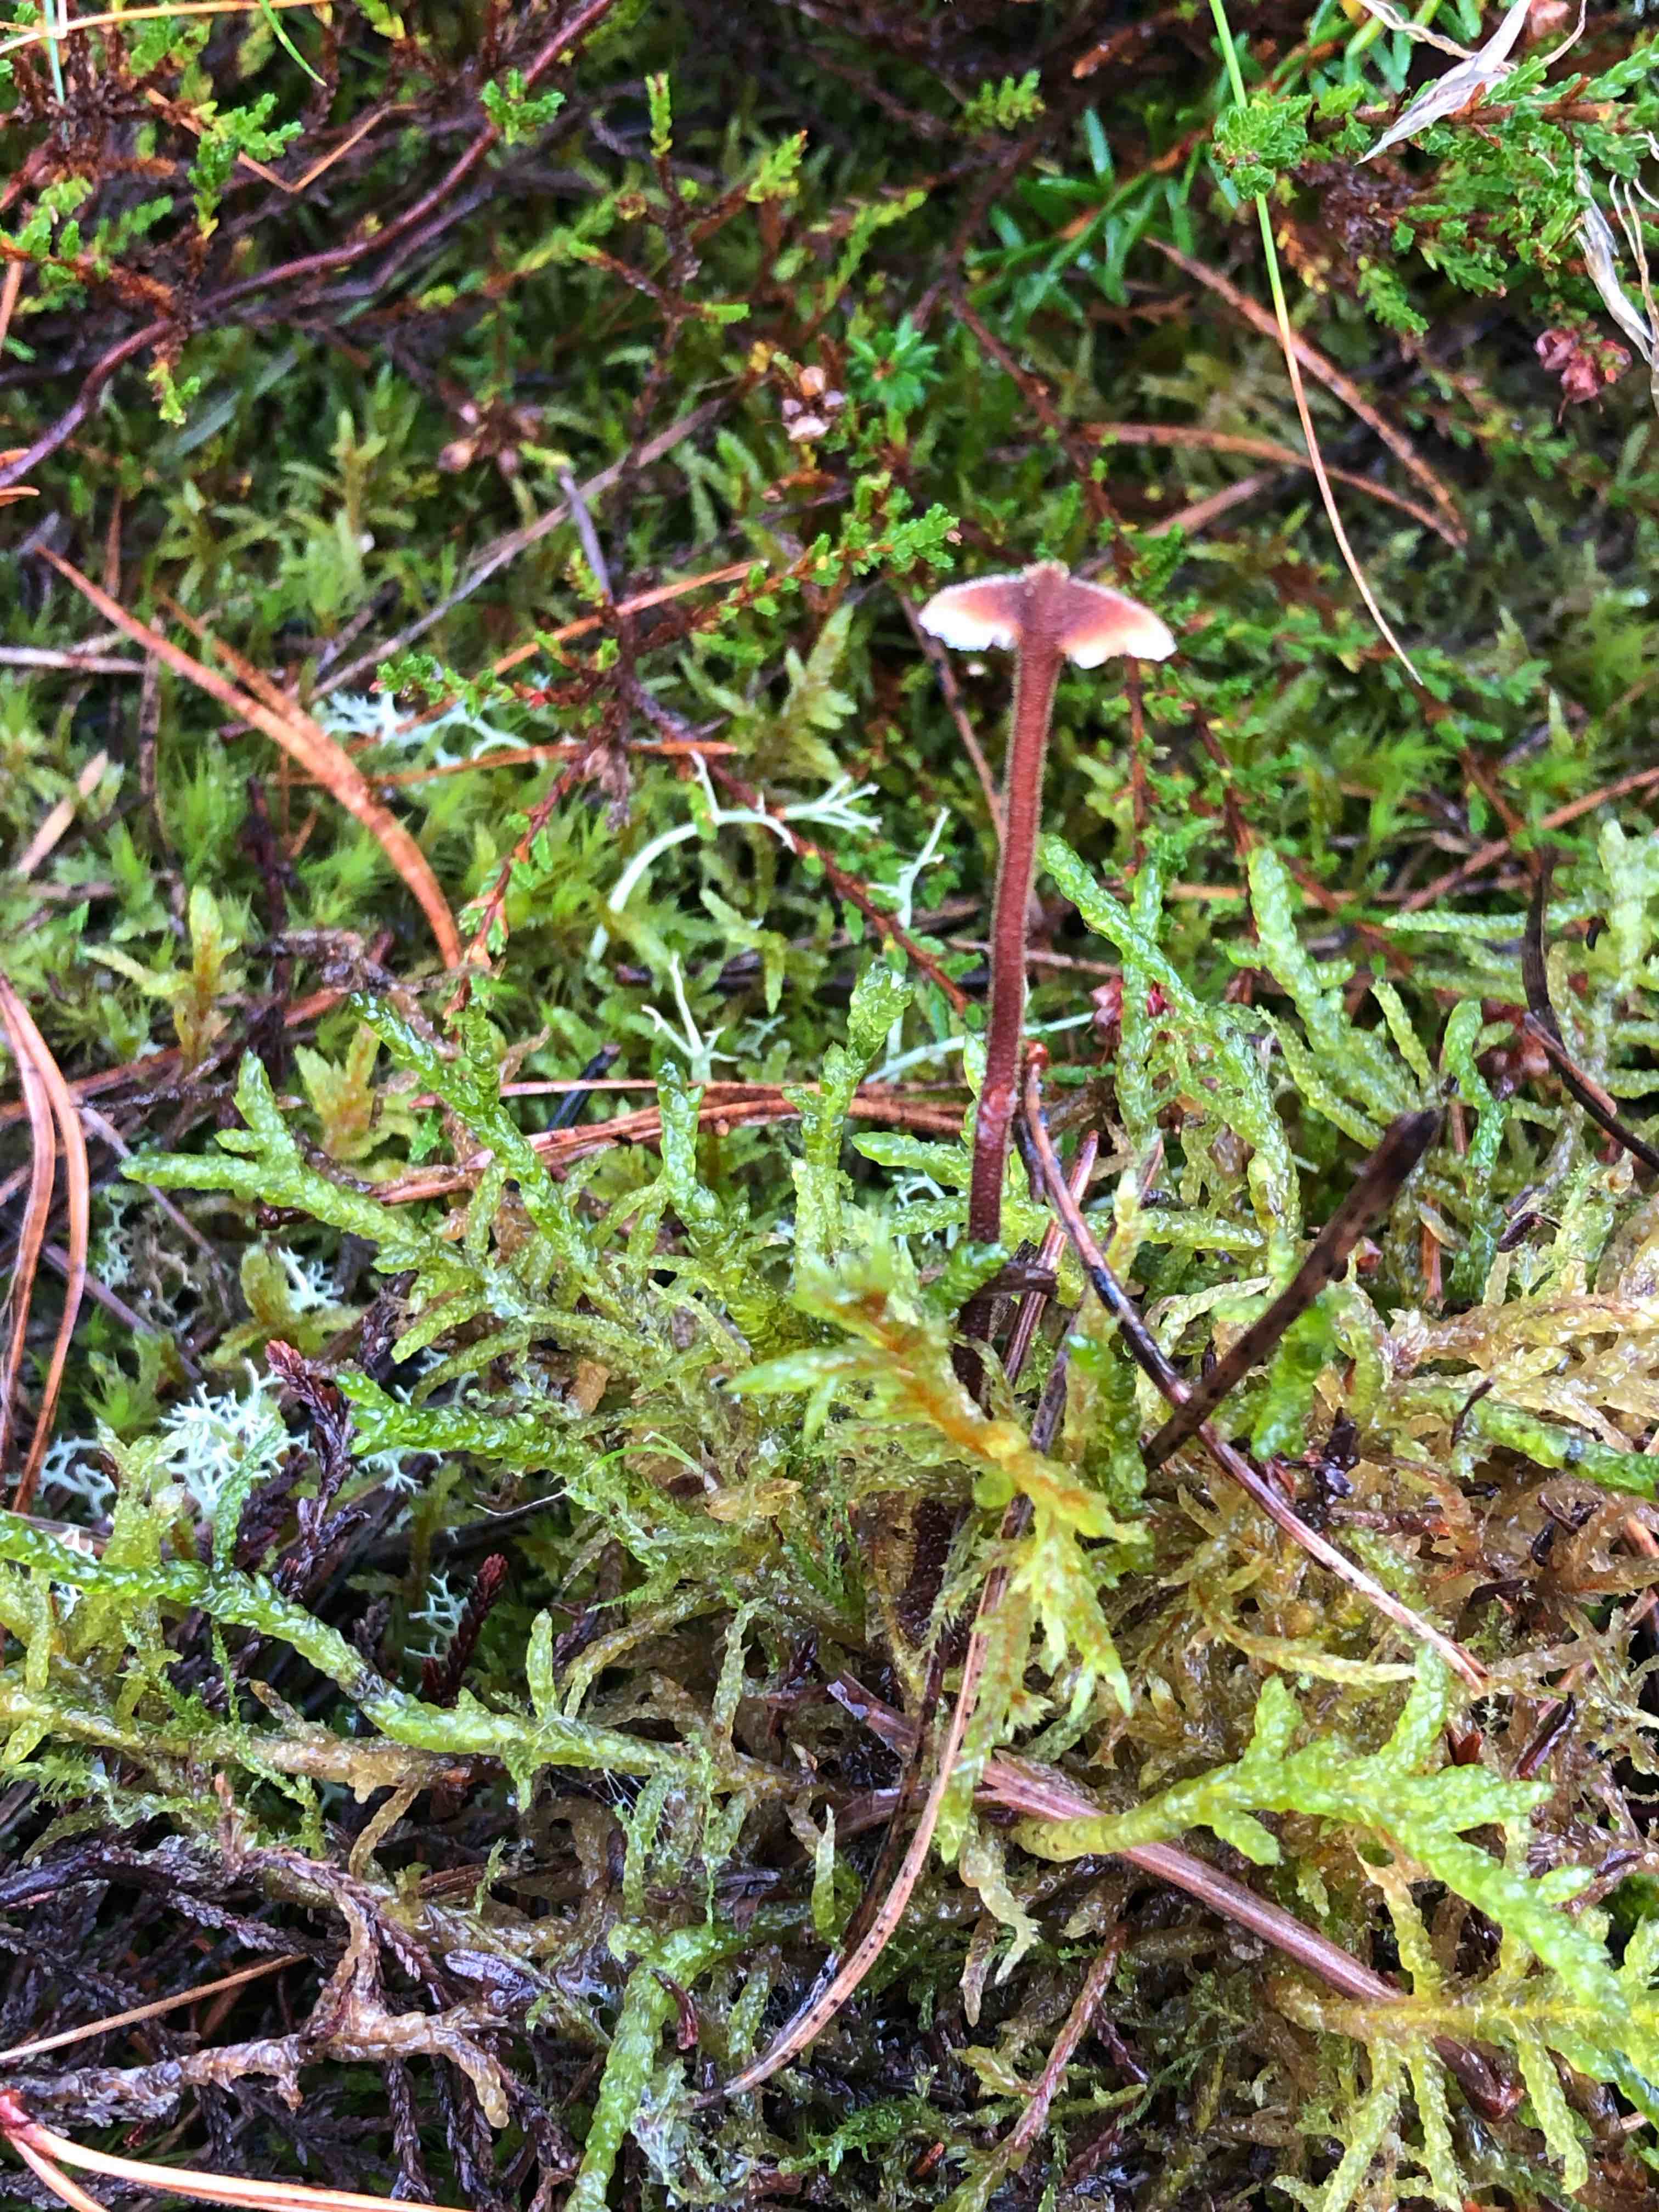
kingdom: Fungi
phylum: Basidiomycota
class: Agaricomycetes
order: Russulales
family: Auriscalpiaceae
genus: Auriscalpium
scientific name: Auriscalpium vulgare
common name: koglepigsvamp
